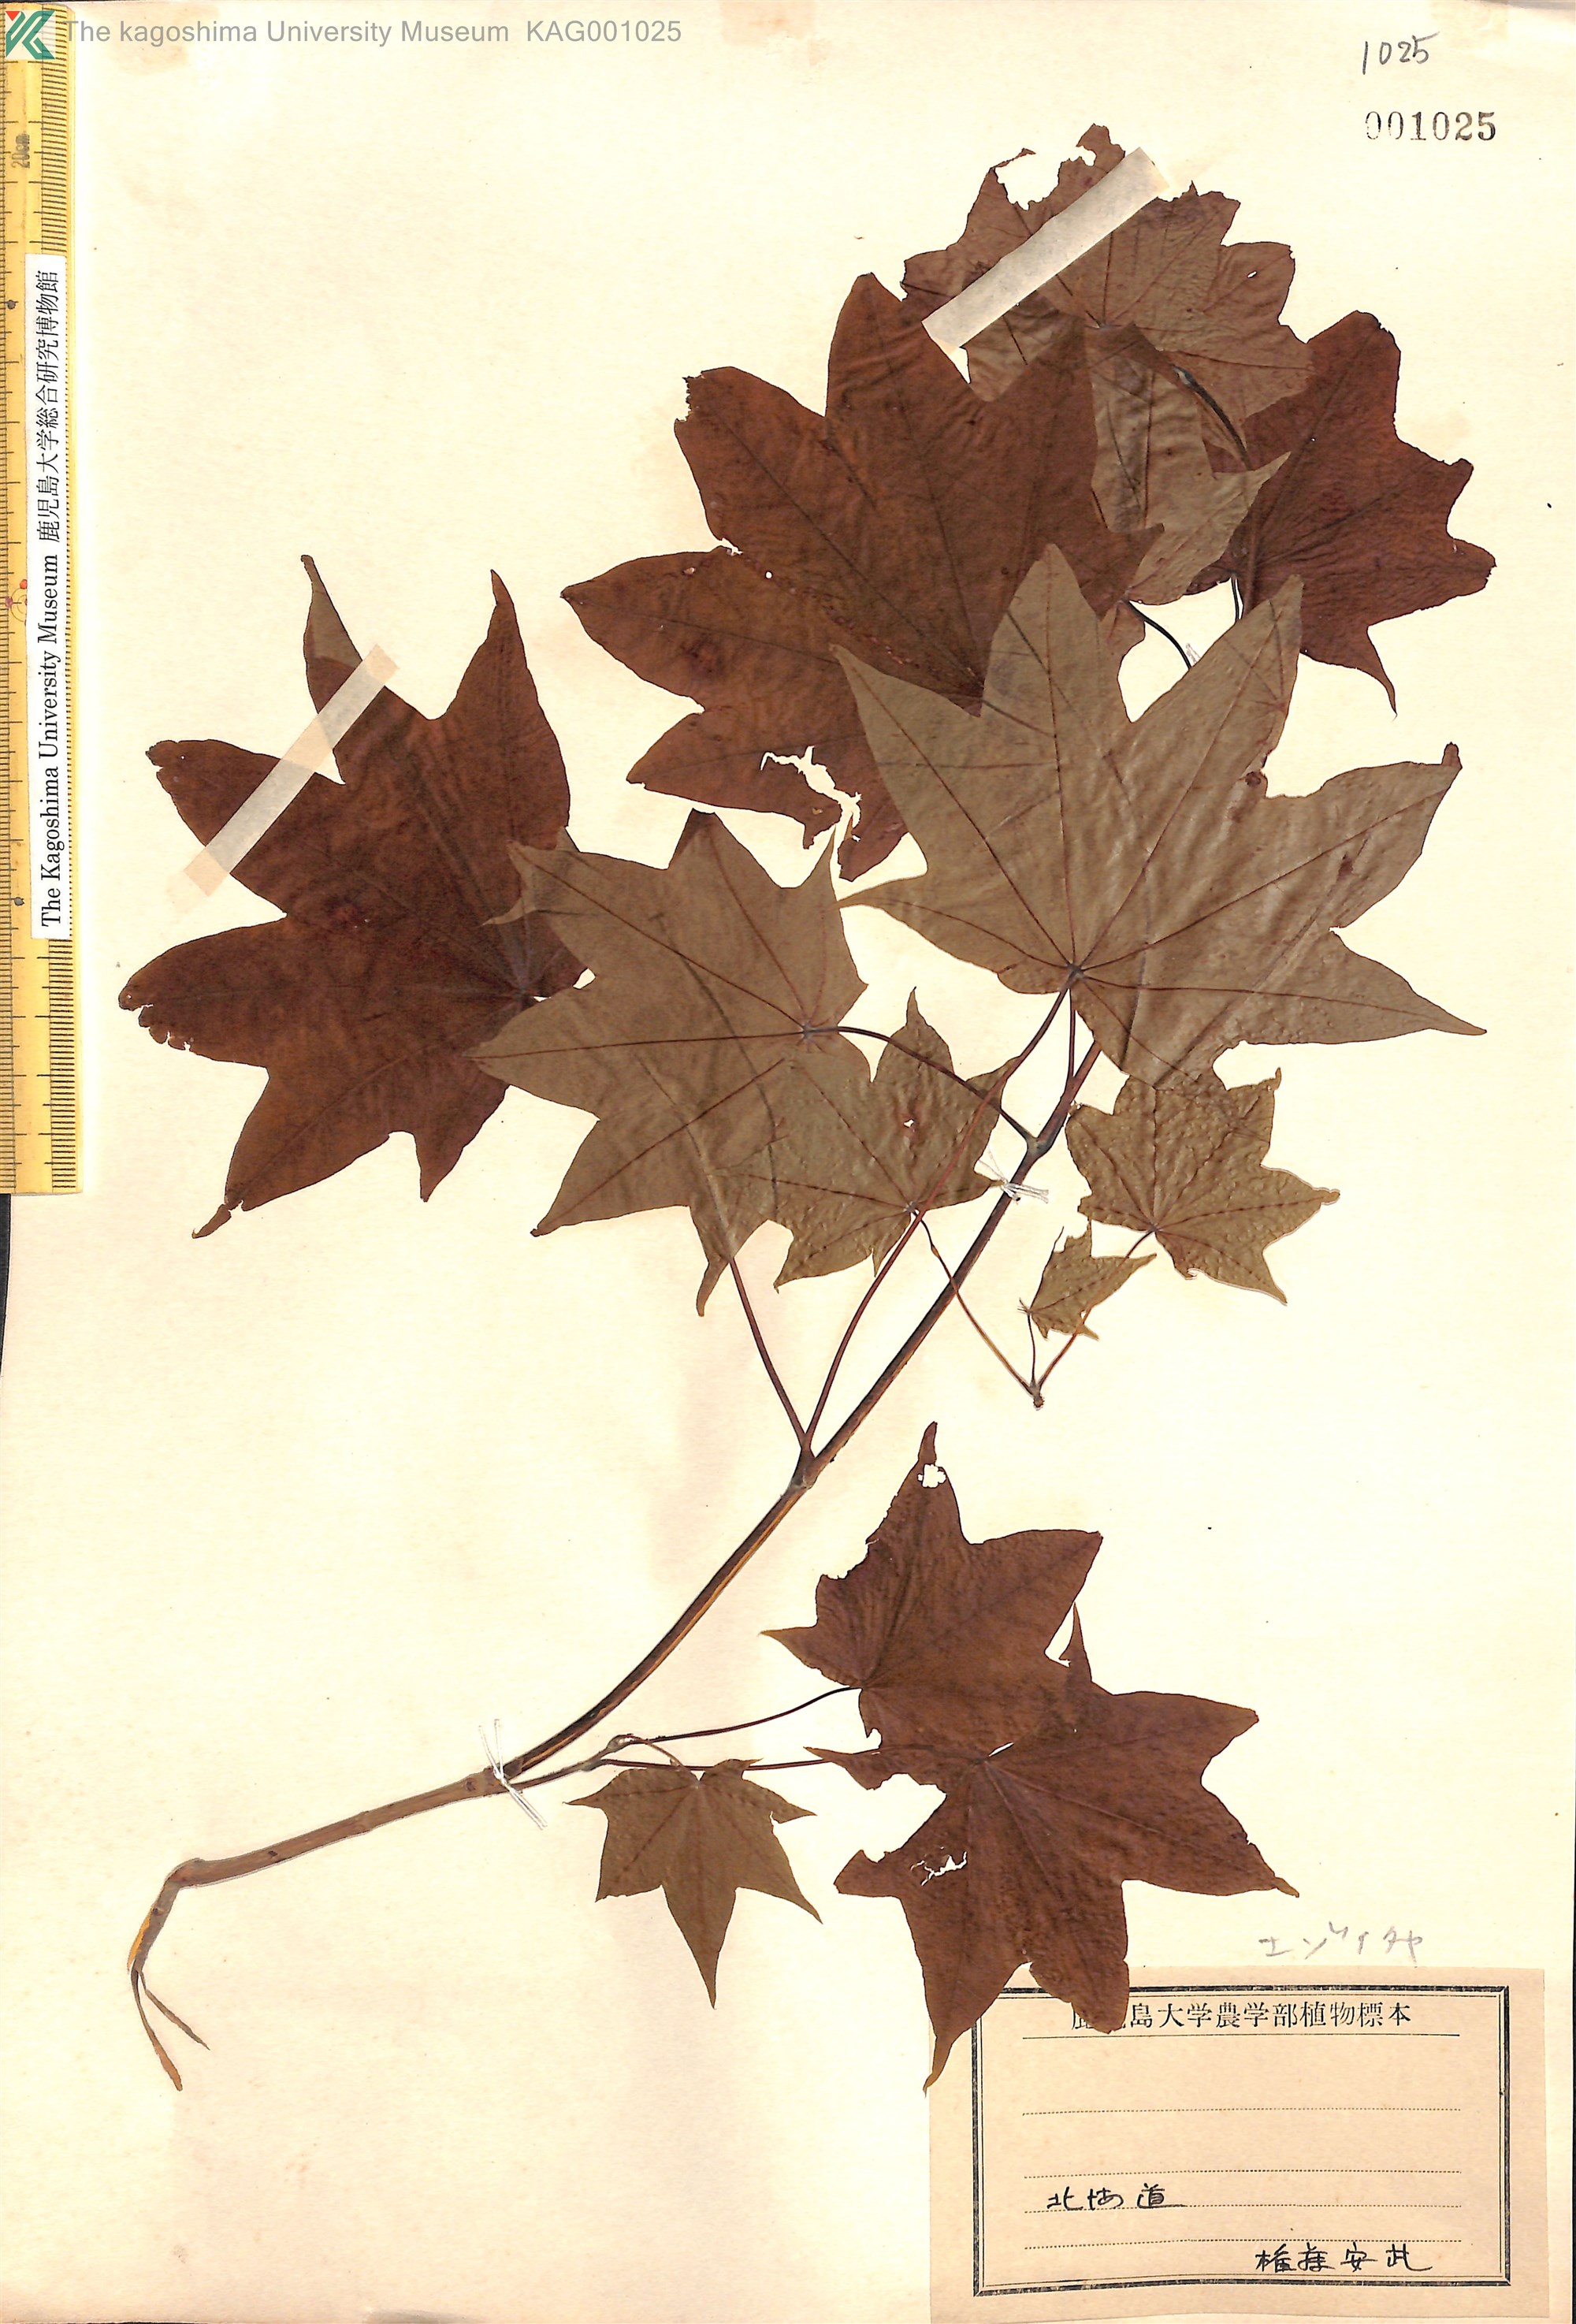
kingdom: Plantae
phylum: Tracheophyta
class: Magnoliopsida
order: Sapindales
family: Sapindaceae
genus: Acer
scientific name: Acer pictum
